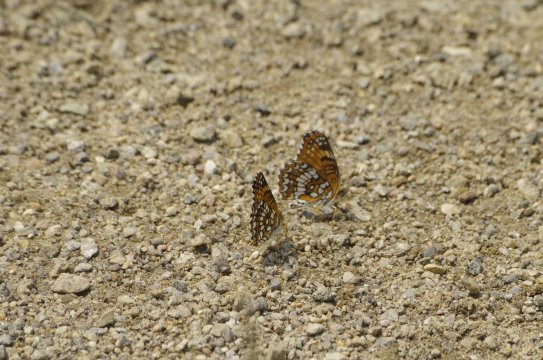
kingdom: Animalia
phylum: Arthropoda
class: Insecta
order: Lepidoptera
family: Nymphalidae
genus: Chlosyne
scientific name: Chlosyne harrisii
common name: Harris's Checkerspot
